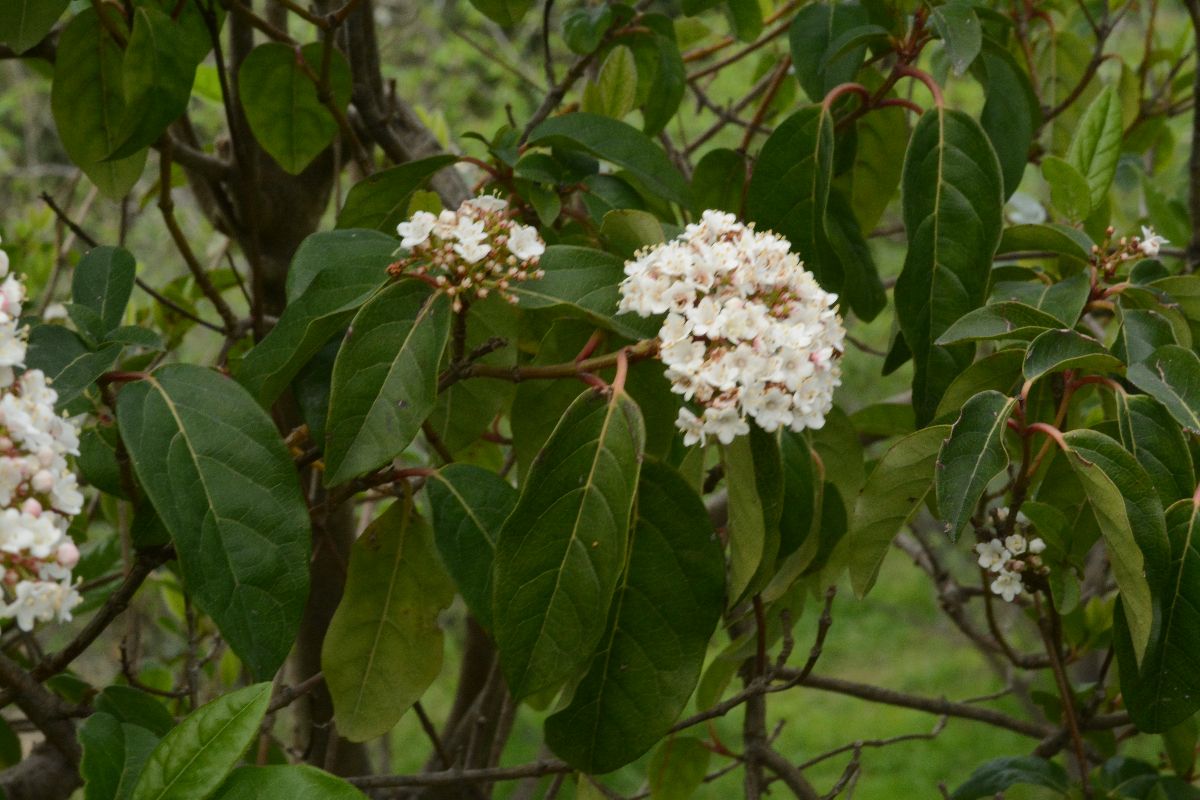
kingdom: Plantae
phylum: Tracheophyta
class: Magnoliopsida
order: Dipsacales
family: Viburnaceae
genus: Viburnum
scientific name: Viburnum tinus
